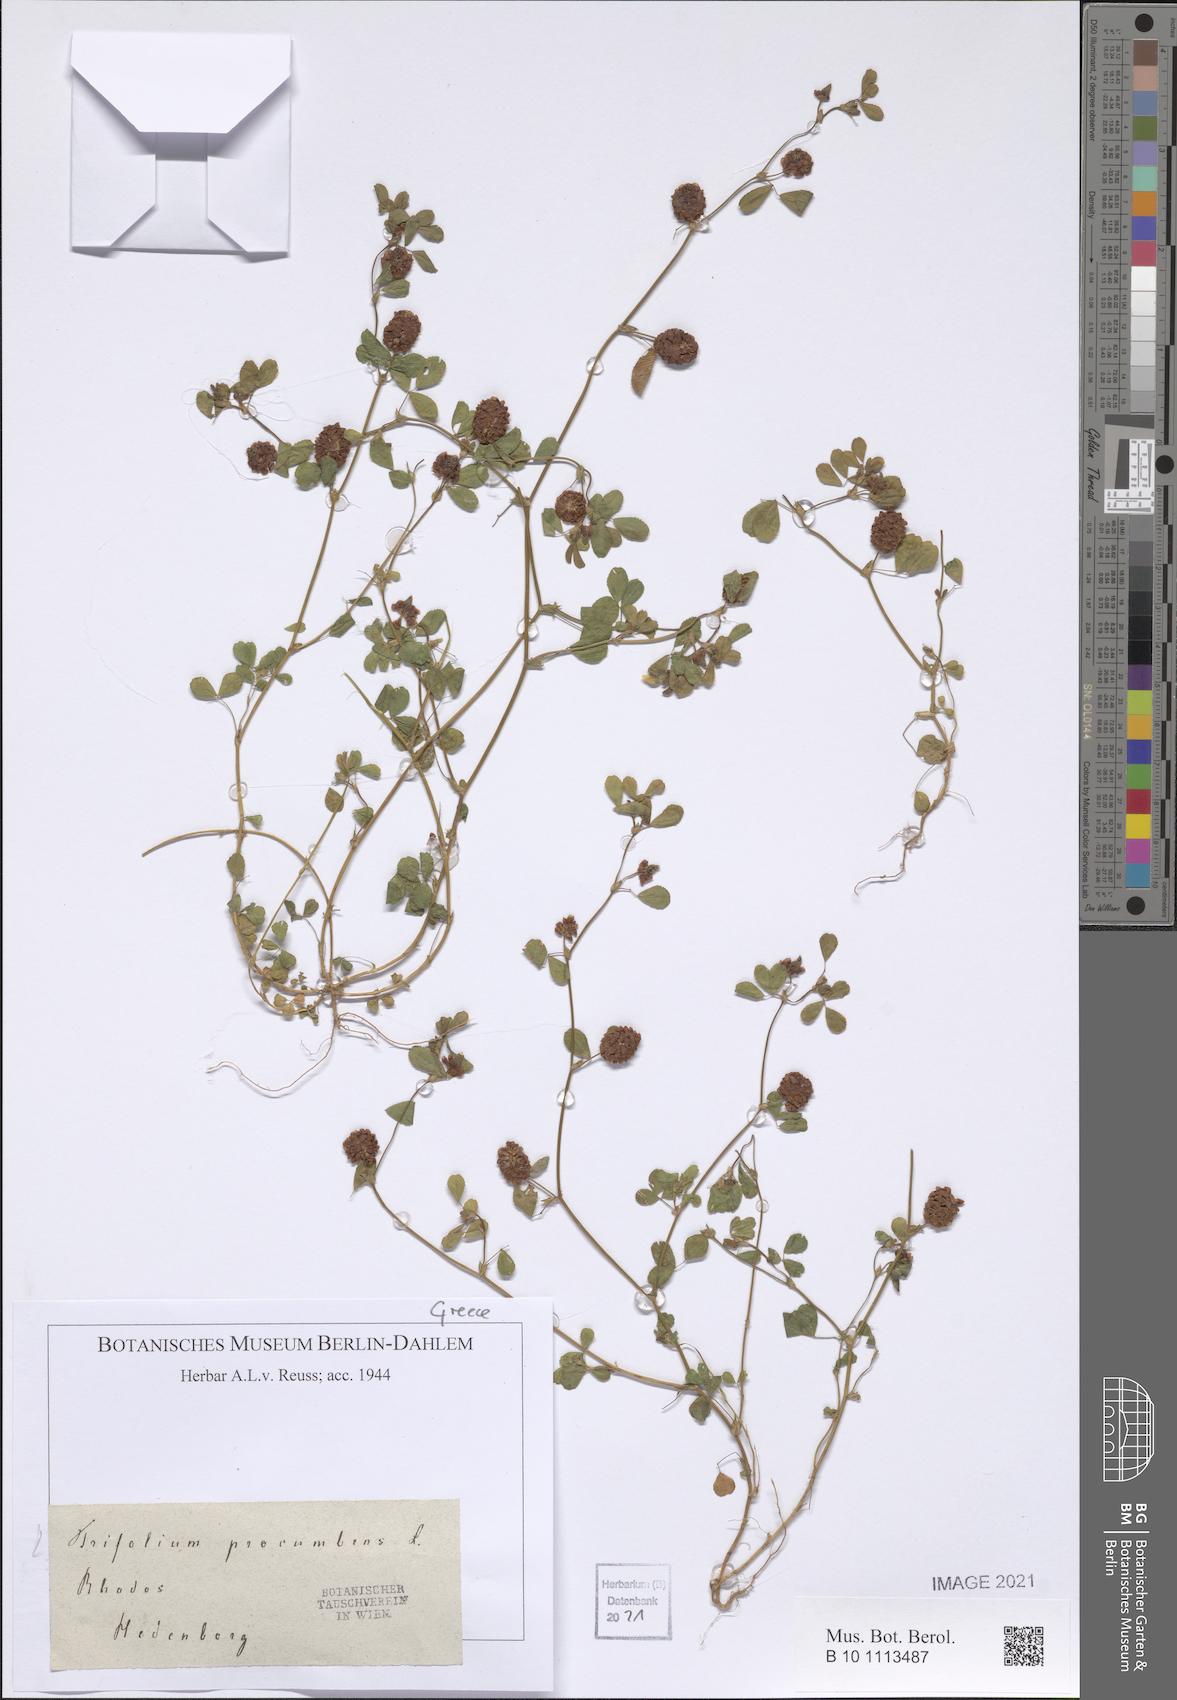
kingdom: Plantae
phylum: Tracheophyta
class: Magnoliopsida
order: Fabales
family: Fabaceae
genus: Trifolium
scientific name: Trifolium campestre
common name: Field clover
